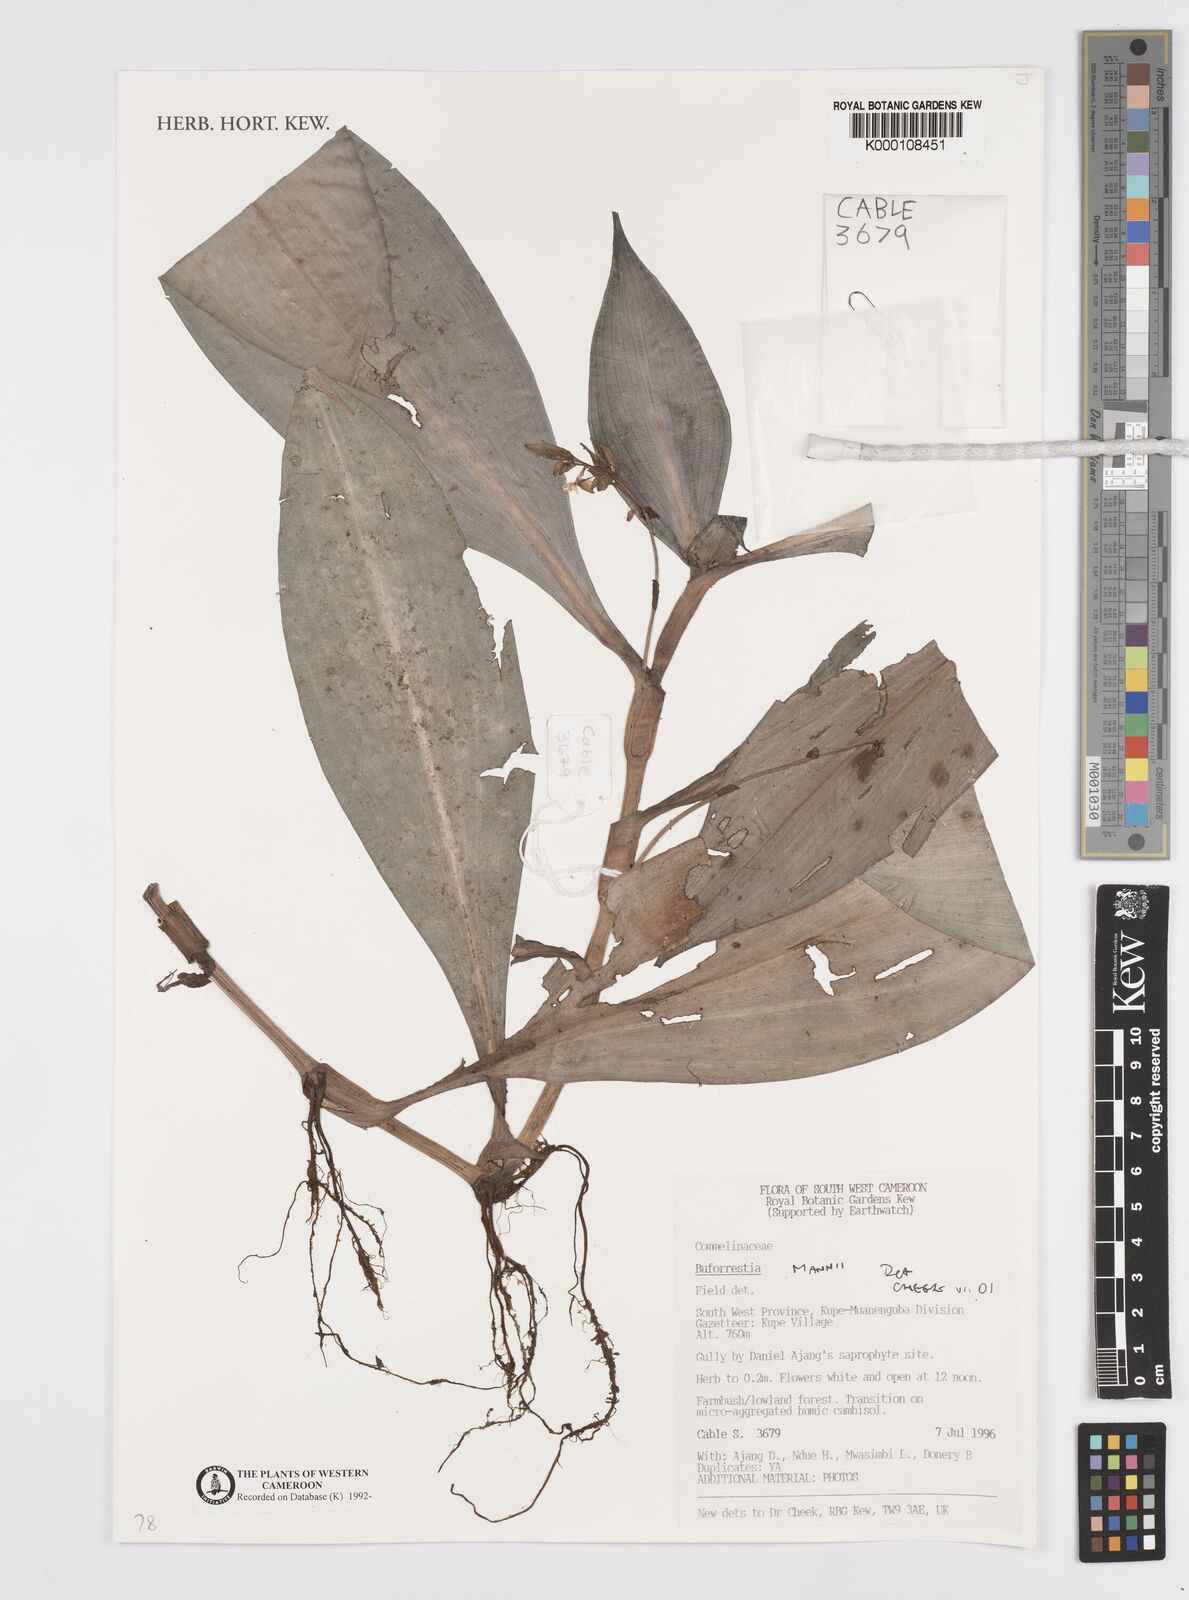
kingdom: Plantae
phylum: Tracheophyta
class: Liliopsida
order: Commelinales
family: Commelinaceae
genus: Buforrestia
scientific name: Buforrestia mannii
